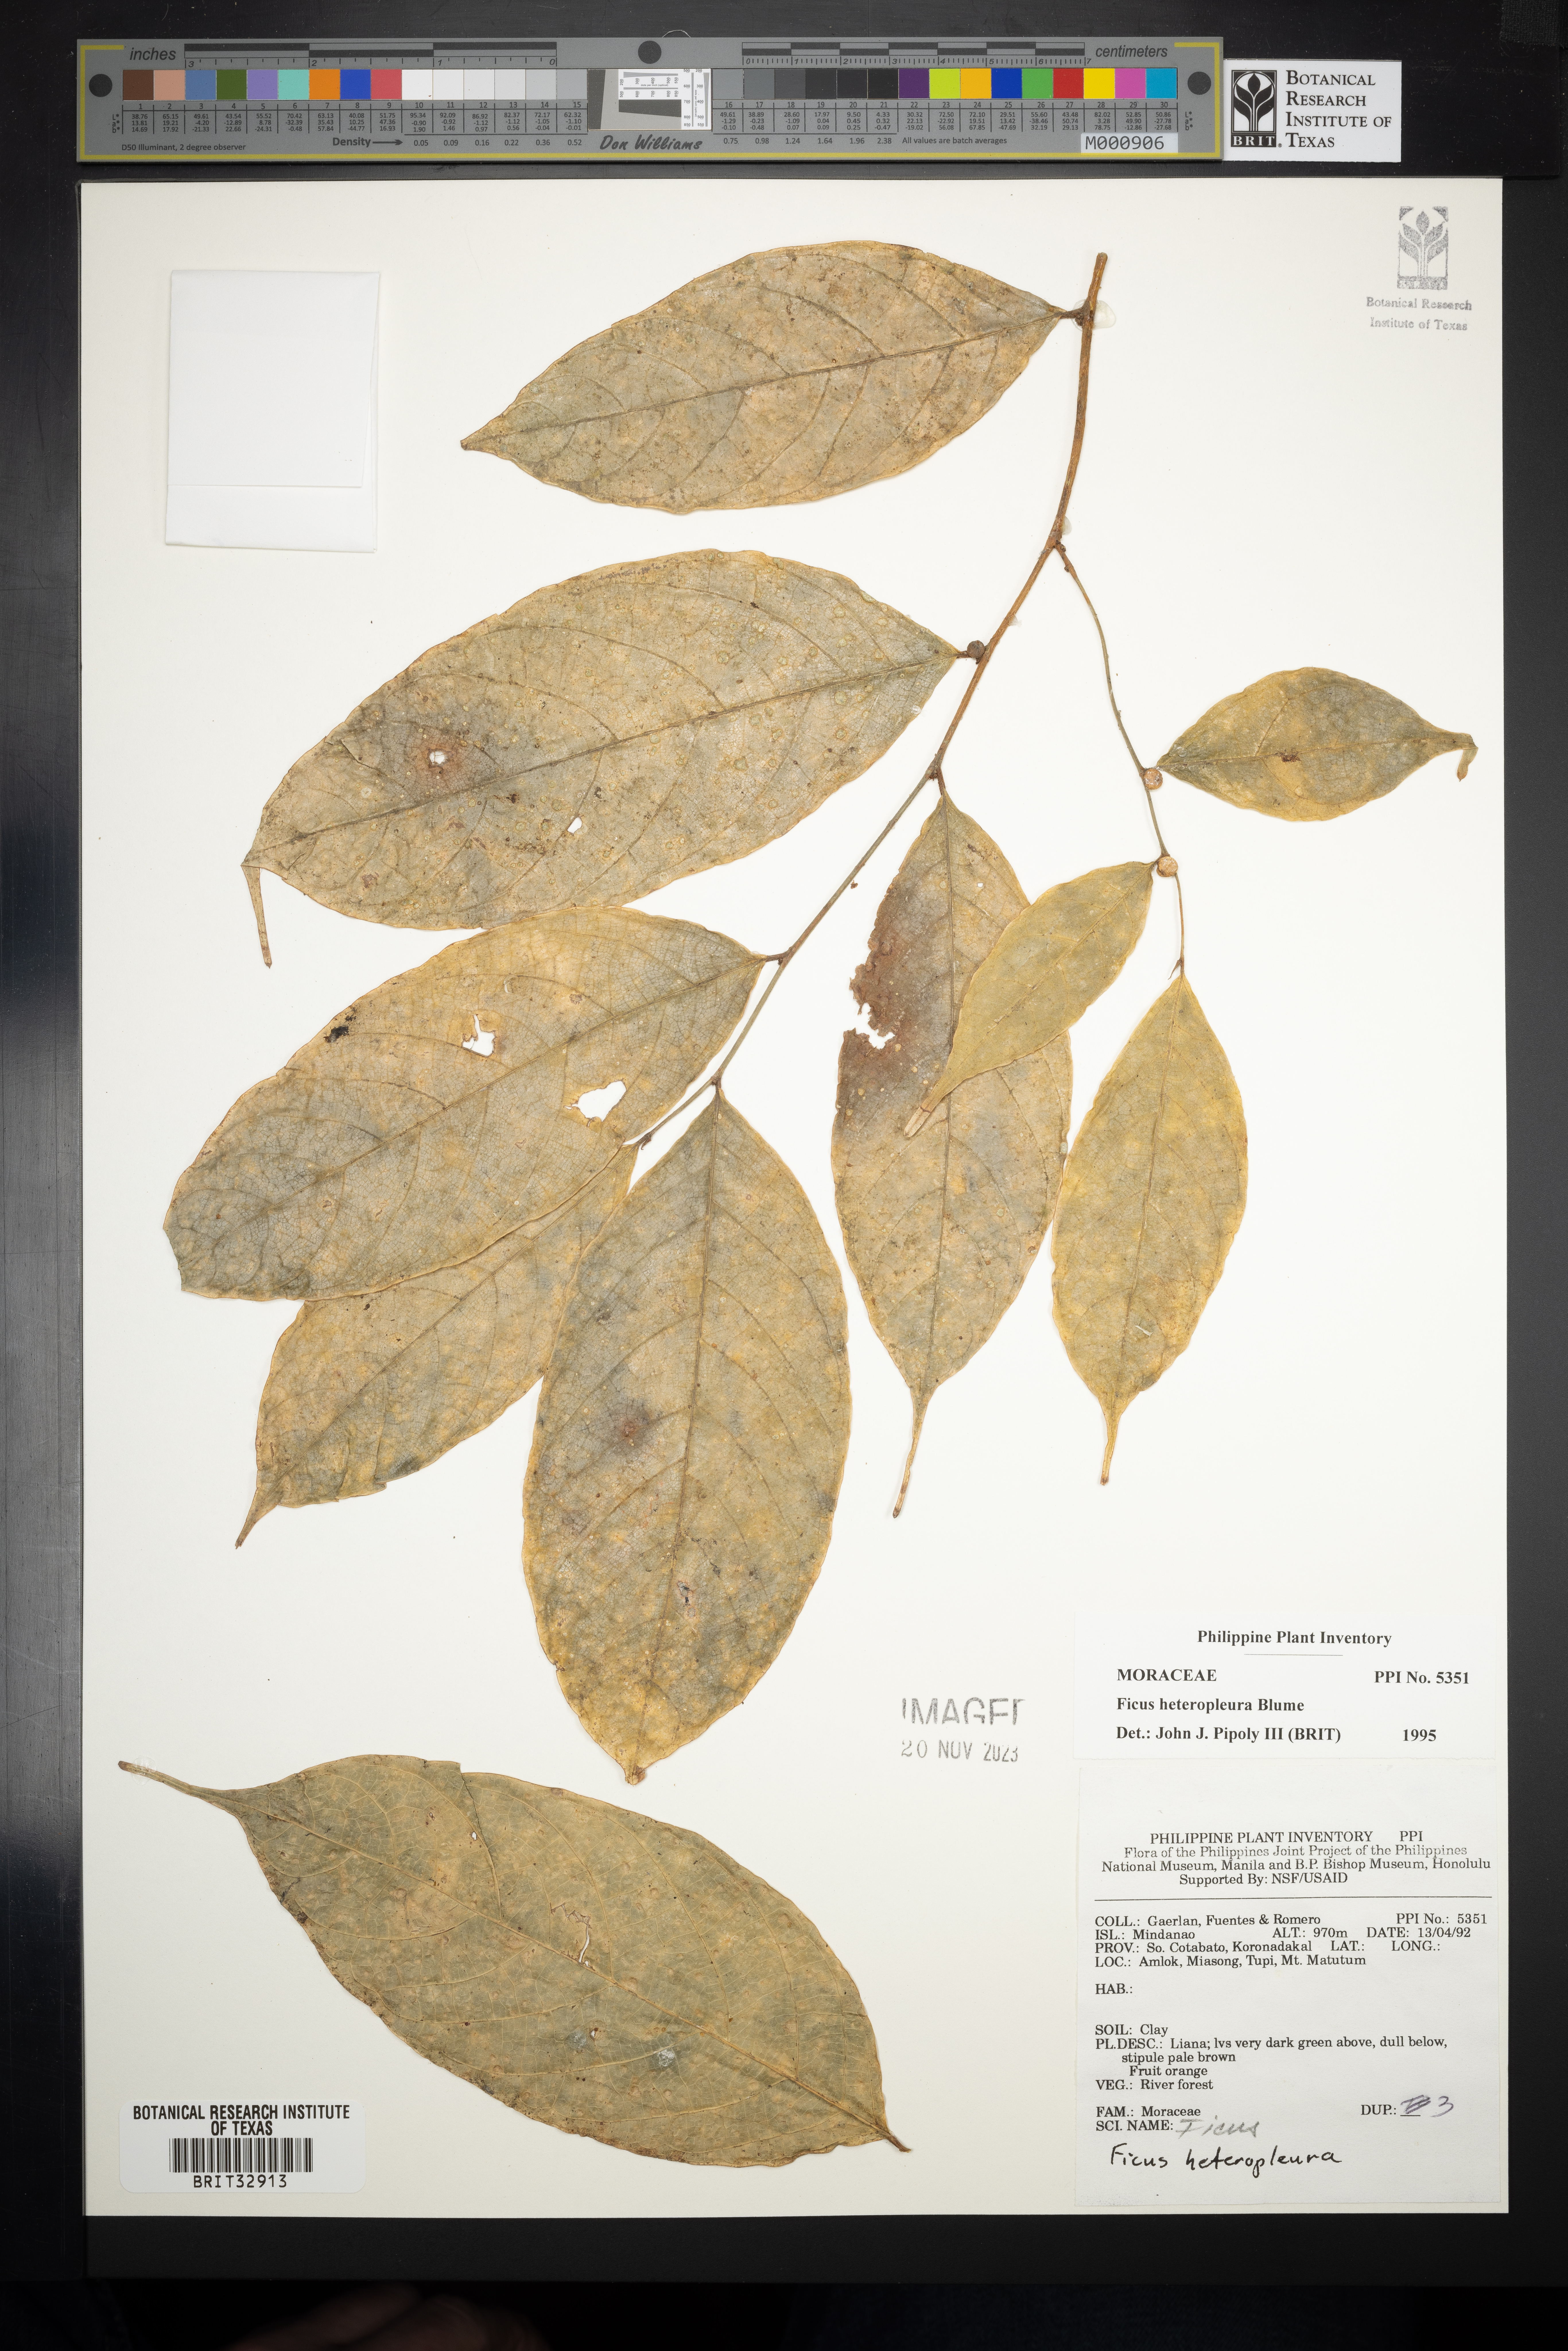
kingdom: Plantae
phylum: Tracheophyta
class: Magnoliopsida
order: Rosales
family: Moraceae
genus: Ficus
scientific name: Ficus heteropleura
